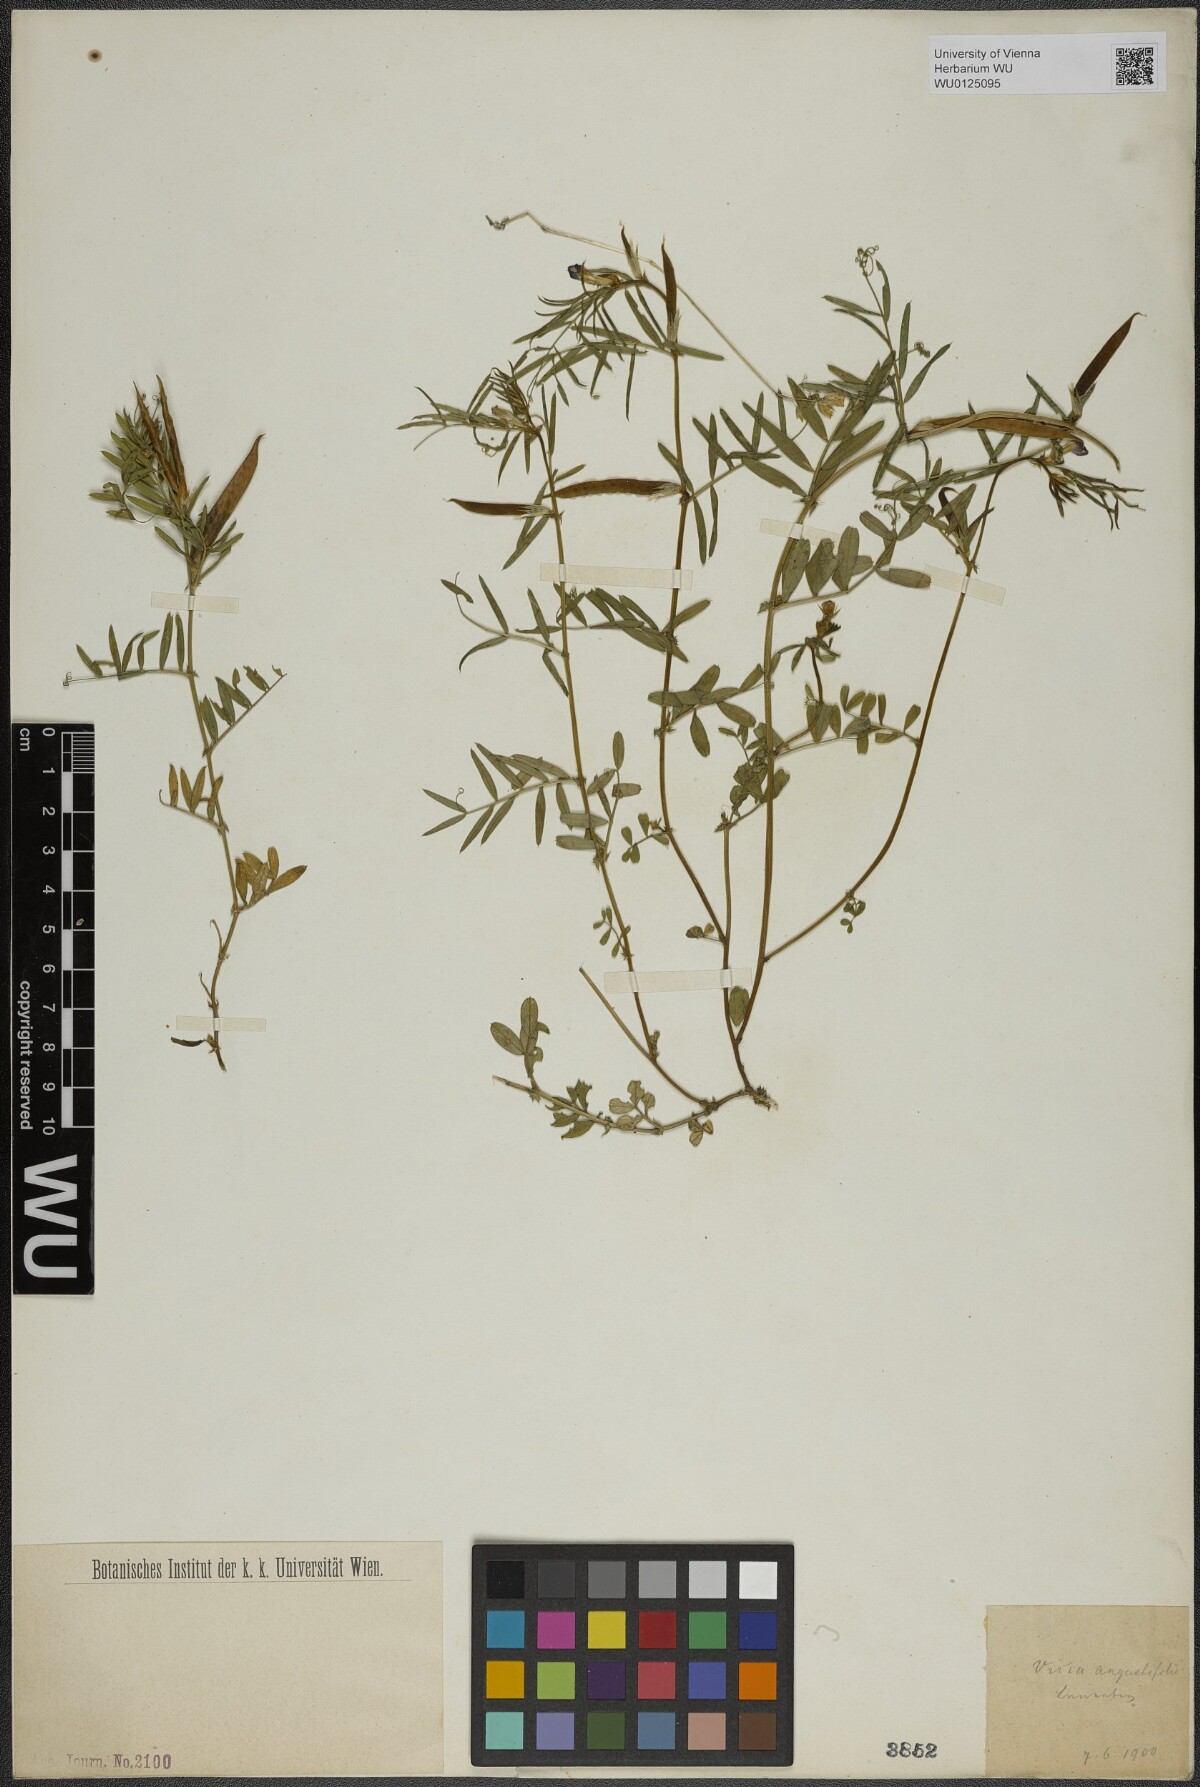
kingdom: Plantae
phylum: Tracheophyta
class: Magnoliopsida
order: Fabales
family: Fabaceae
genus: Vicia
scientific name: Vicia sativa
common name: Garden vetch
